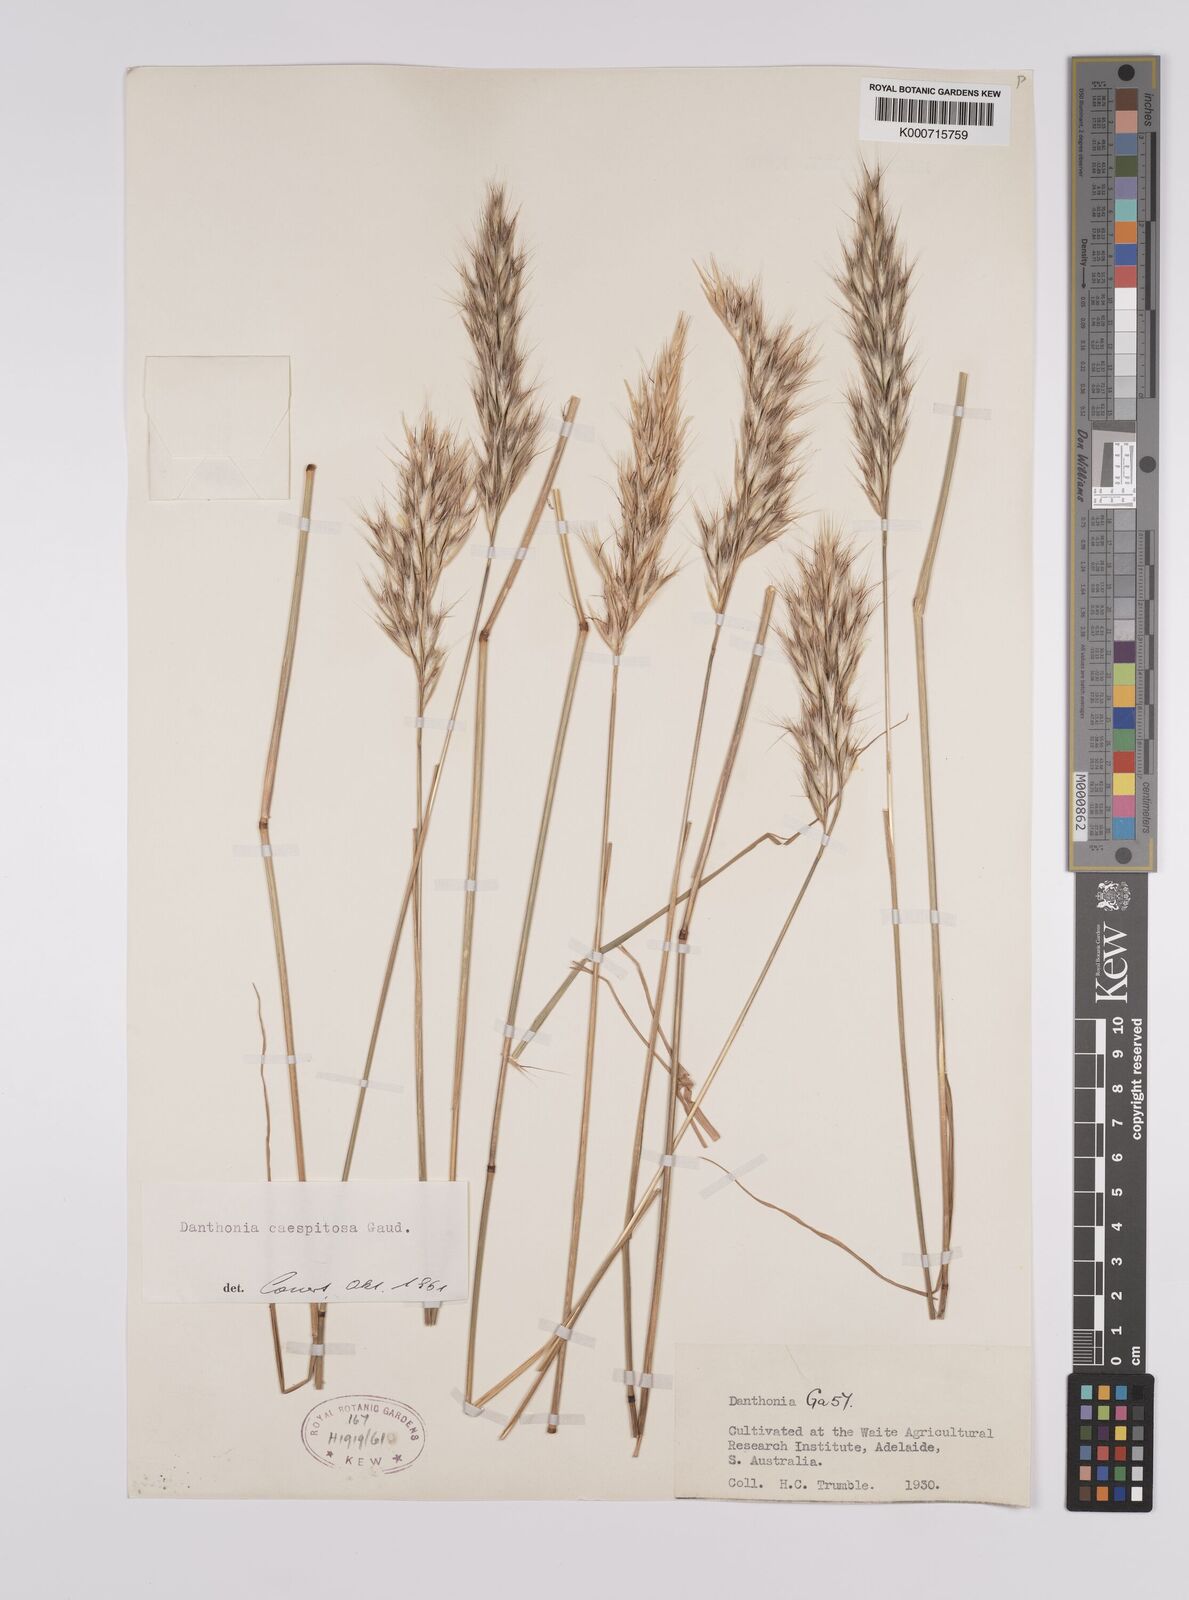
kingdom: Plantae
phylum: Tracheophyta
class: Liliopsida
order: Poales
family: Poaceae
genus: Rytidosperma
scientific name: Rytidosperma caespitosum
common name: Tufted wallaby grass
